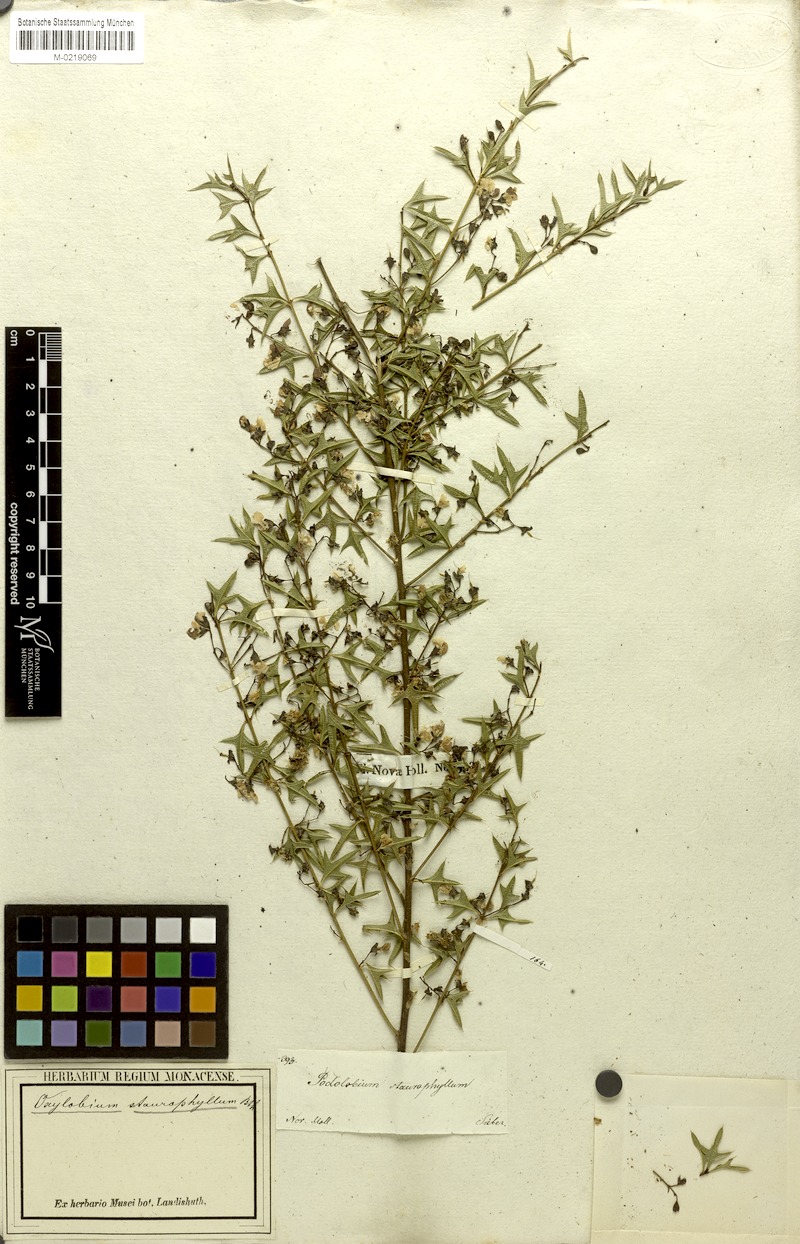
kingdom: Plantae
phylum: Tracheophyta
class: Magnoliopsida
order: Fabales
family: Fabaceae
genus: Podolobium
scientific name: Podolobium ilicifolium
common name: Native holly
